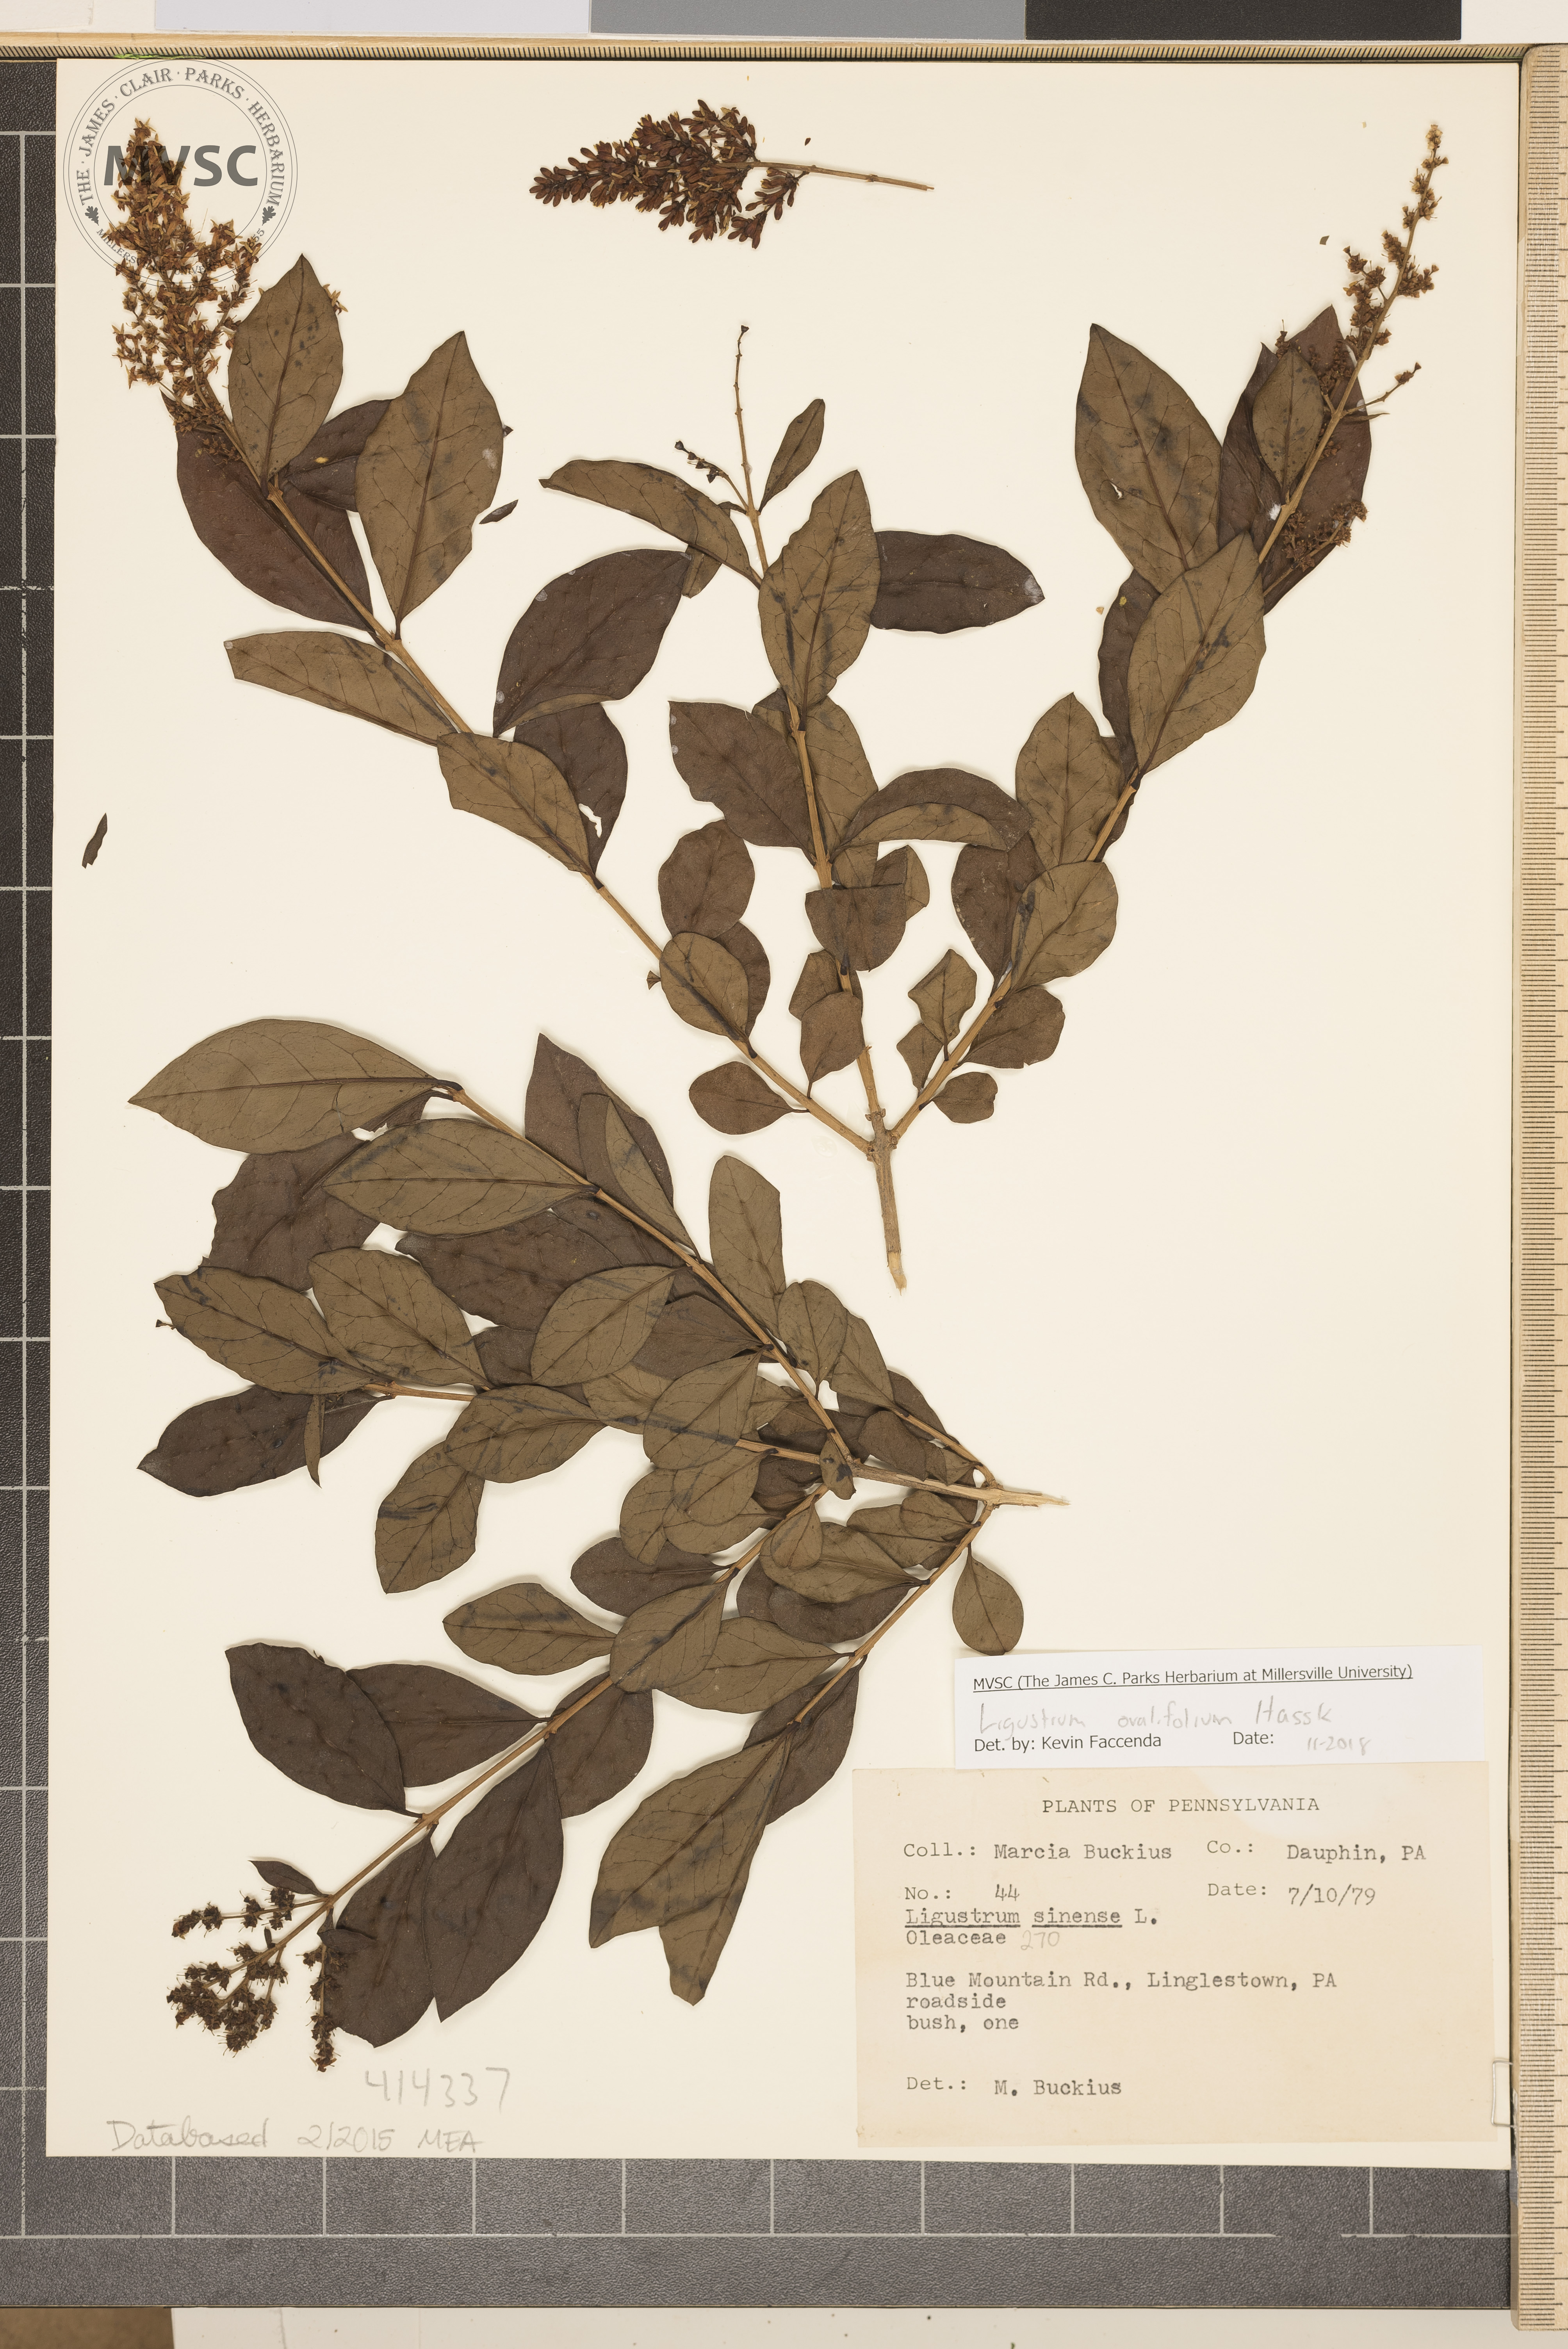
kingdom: Plantae
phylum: Tracheophyta
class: Magnoliopsida
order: Lamiales
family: Oleaceae
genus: Ligustrum
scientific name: Ligustrum ovalifolium
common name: Chinese privet
